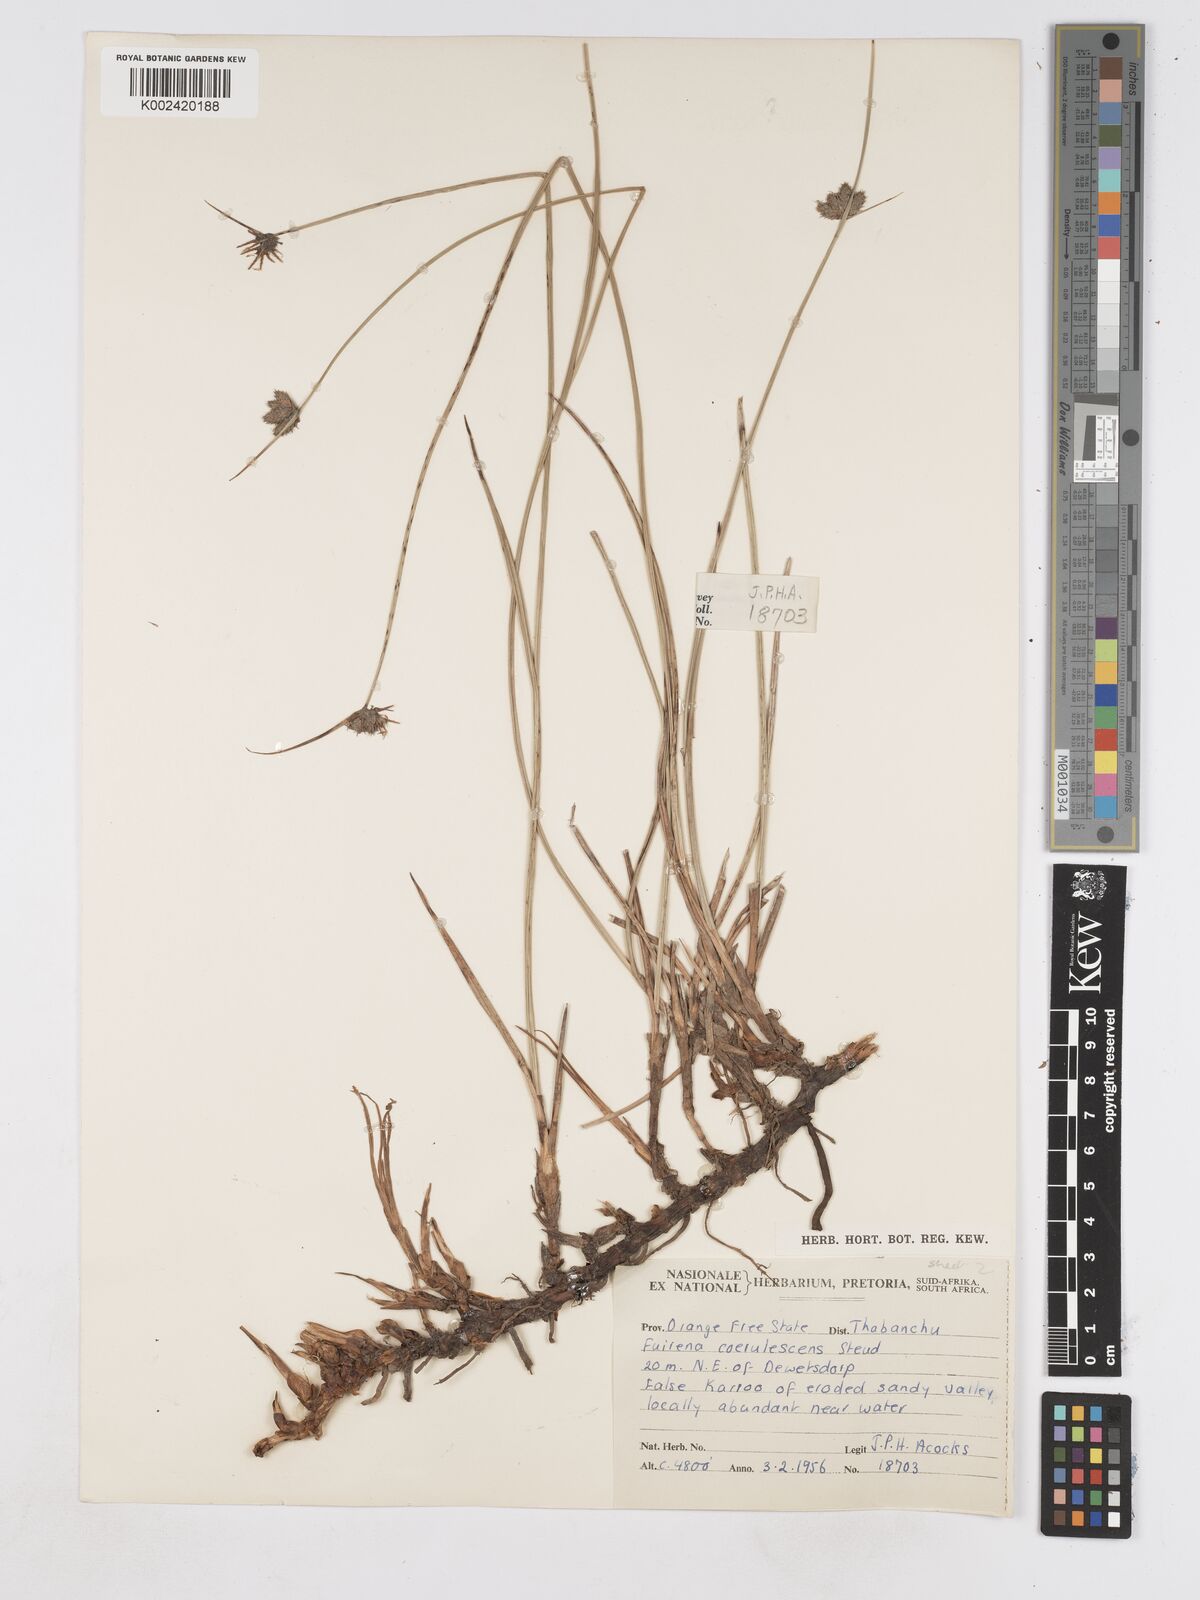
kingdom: Plantae
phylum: Tracheophyta
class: Liliopsida
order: Poales
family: Cyperaceae
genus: Fuirena
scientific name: Fuirena coerulescens
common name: Blue umbrella-sedge
